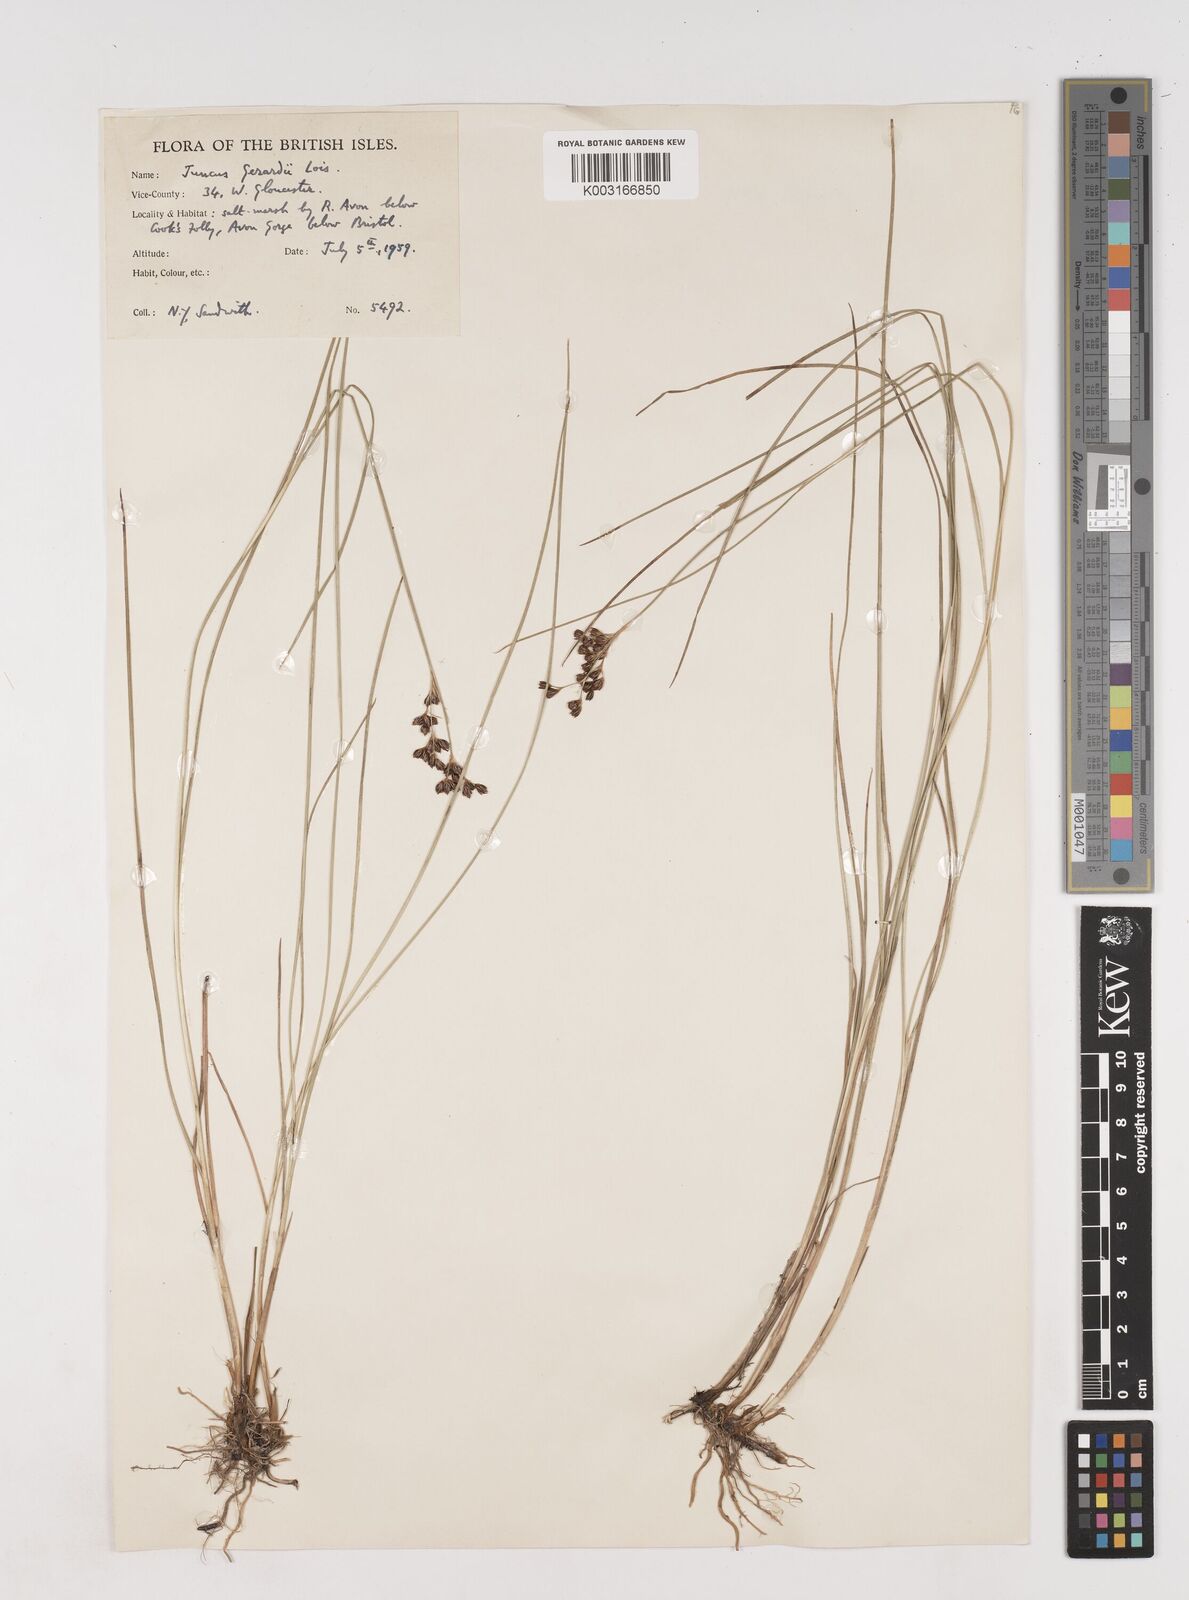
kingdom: Plantae
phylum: Tracheophyta
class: Liliopsida
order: Poales
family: Juncaceae
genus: Juncus
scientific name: Juncus gerardi
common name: Saltmarsh rush
